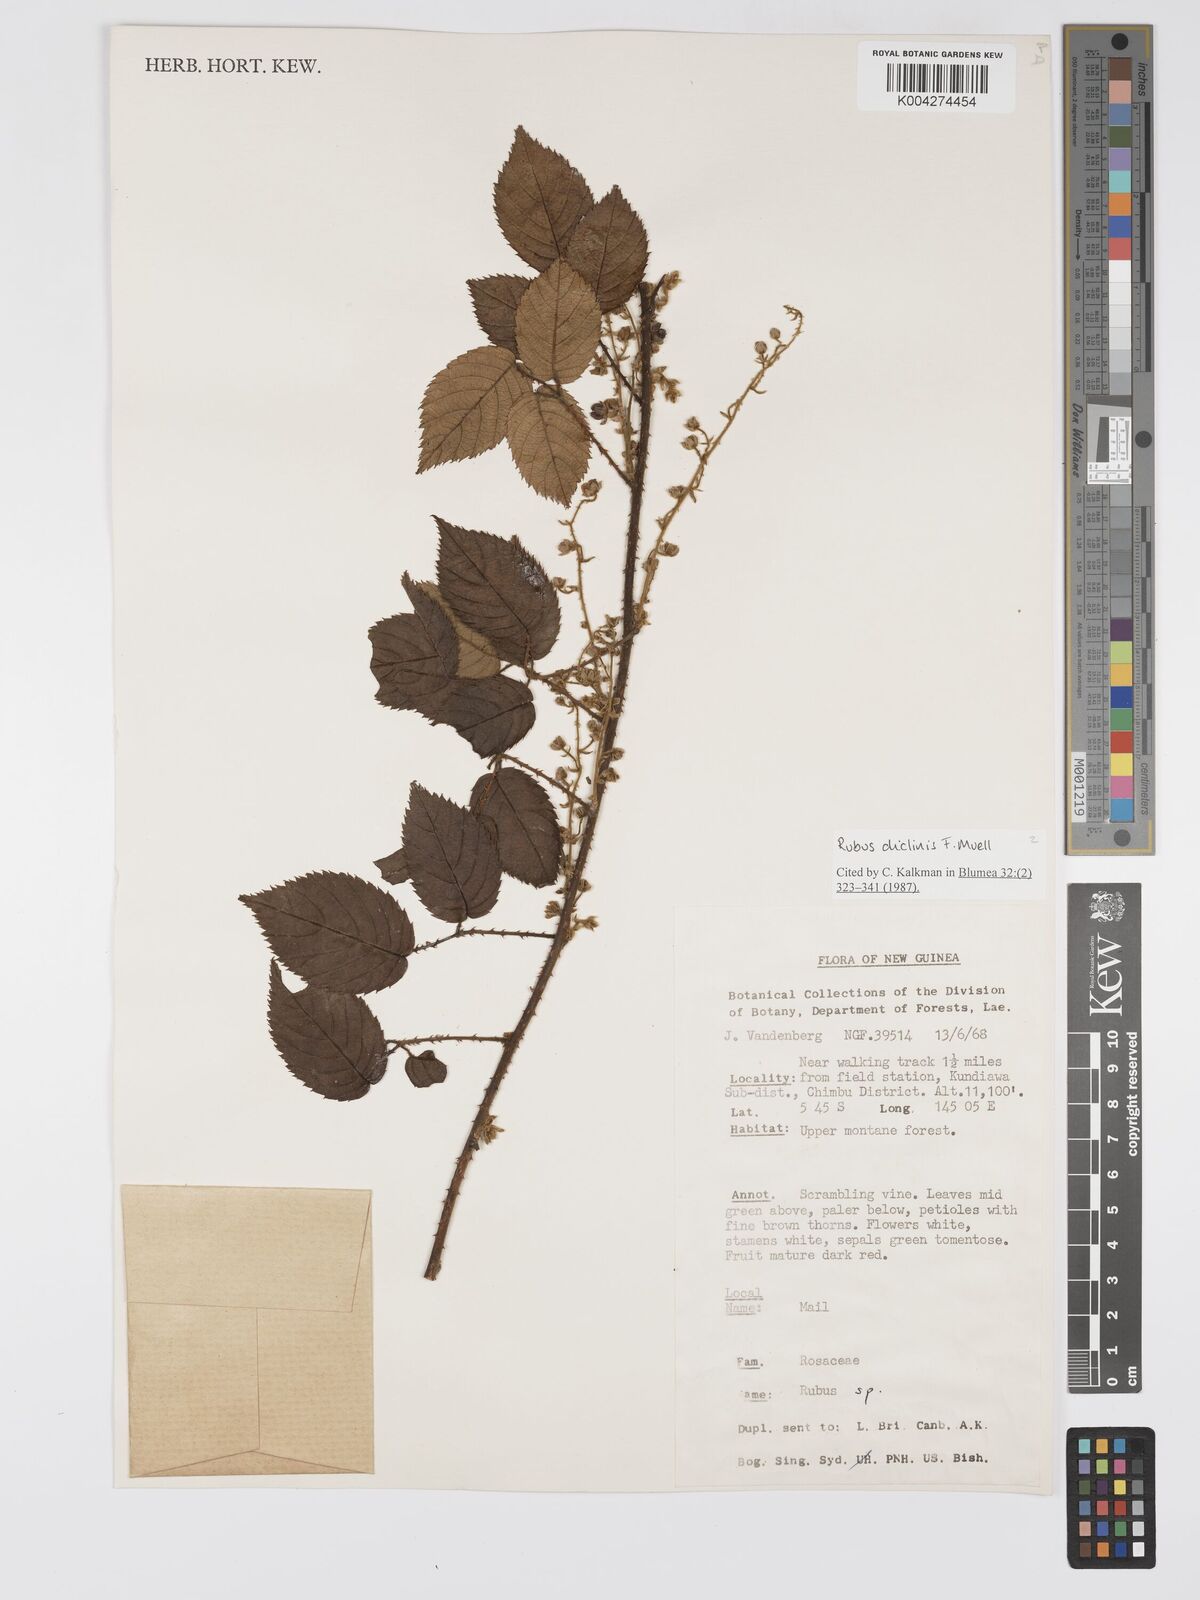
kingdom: Plantae
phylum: Tracheophyta
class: Magnoliopsida
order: Rosales
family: Rosaceae
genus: Rubus
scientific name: Rubus diclinis
